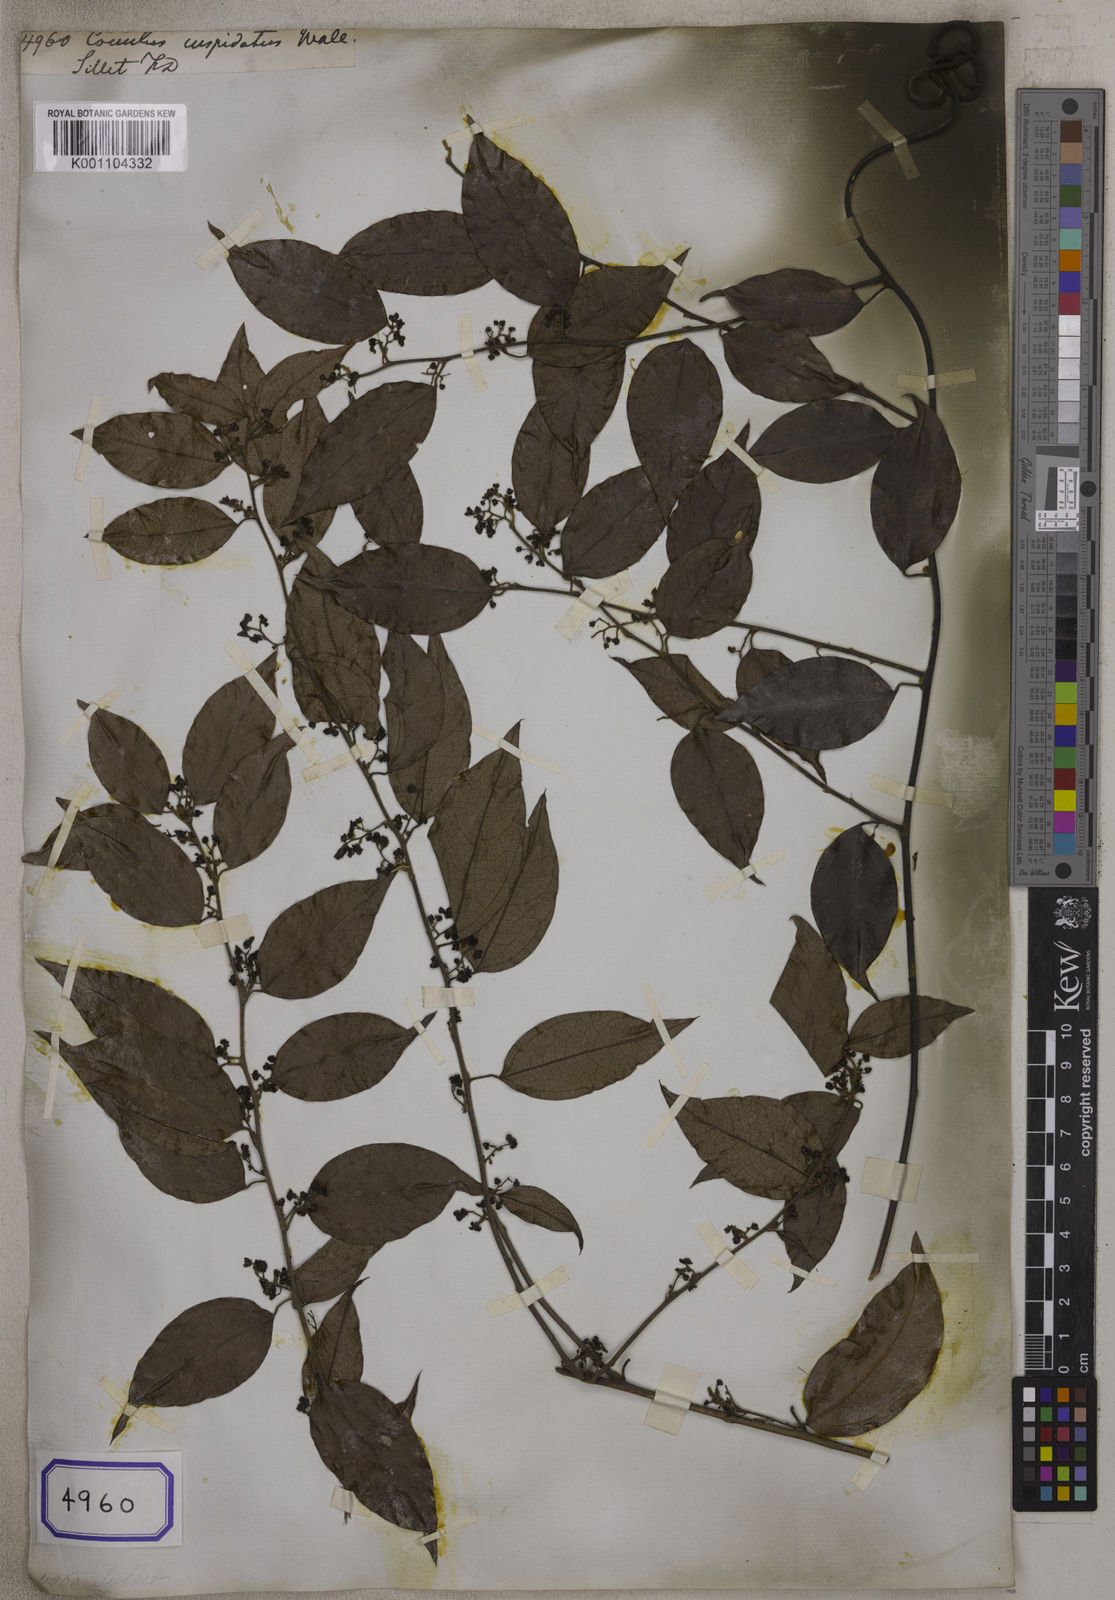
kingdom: Plantae
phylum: Tracheophyta
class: Magnoliopsida
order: Ranunculales
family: Menispermaceae
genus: Hypserpa
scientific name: Hypserpa nitida
